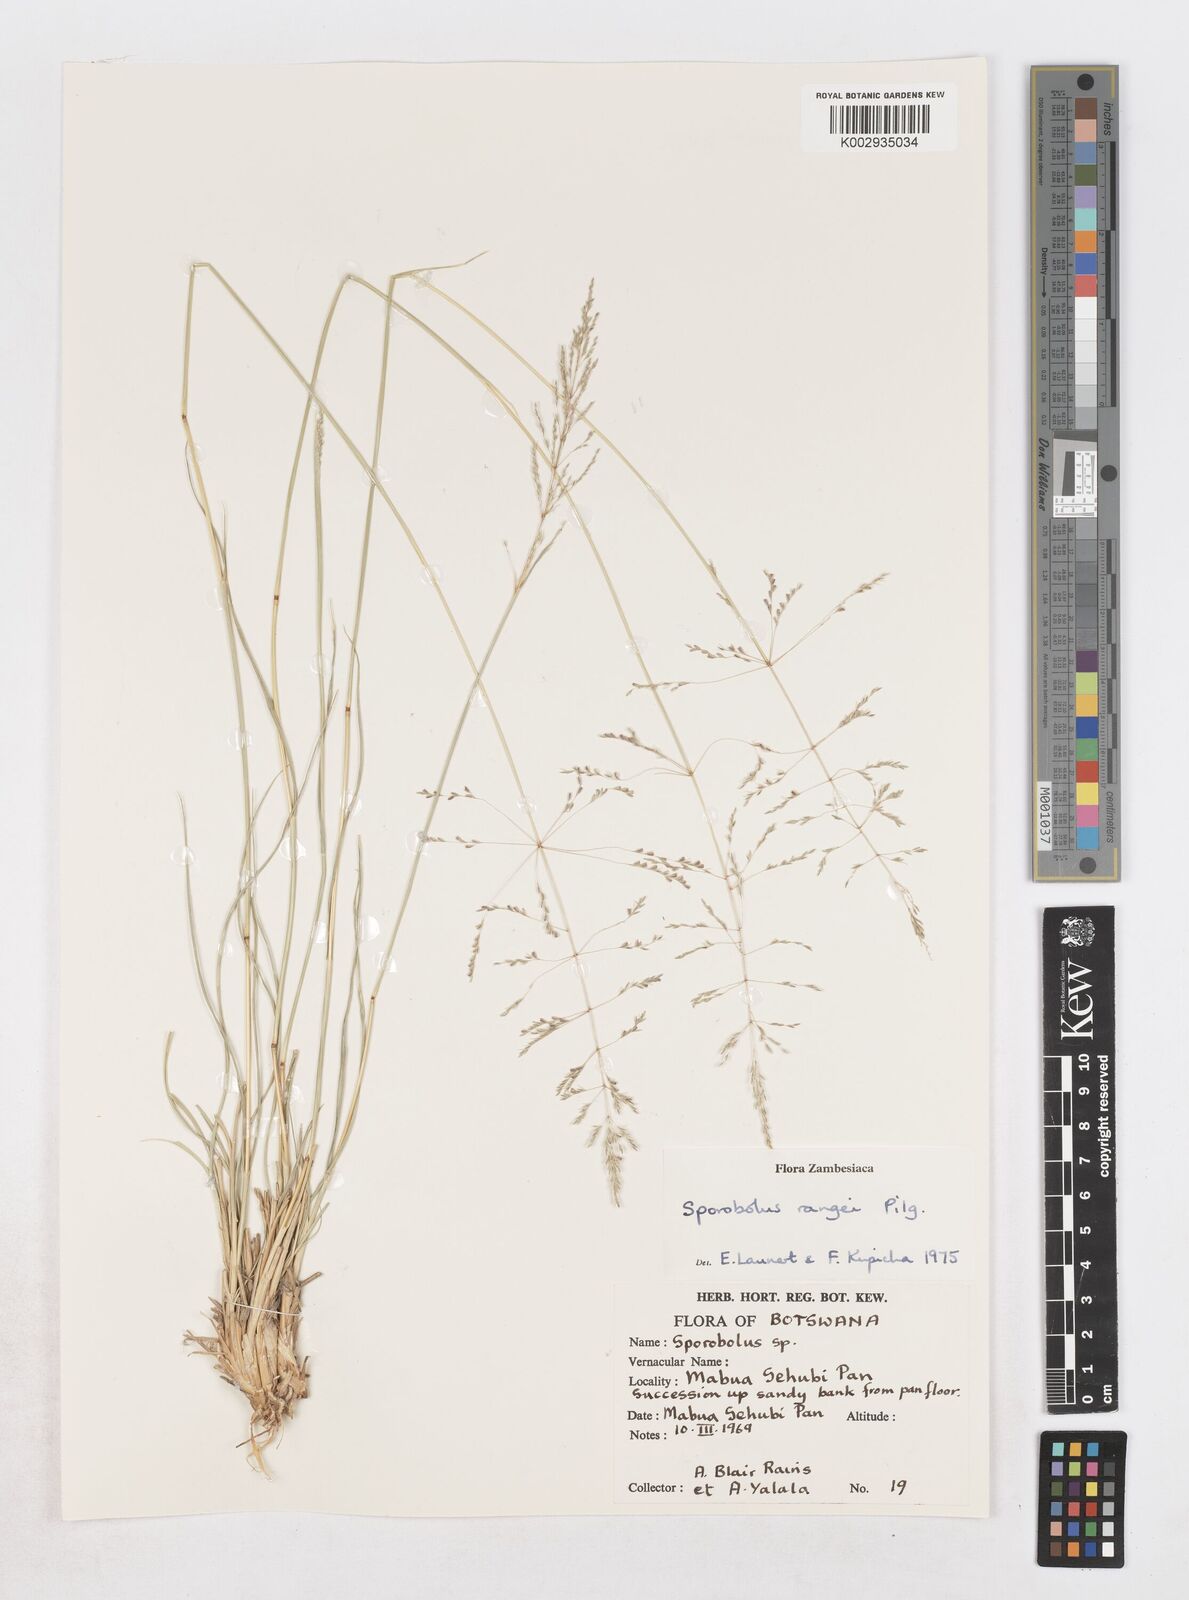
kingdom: Plantae
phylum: Tracheophyta
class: Liliopsida
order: Poales
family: Poaceae
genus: Sporobolus
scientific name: Sporobolus ioclados
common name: Pan dropseed
